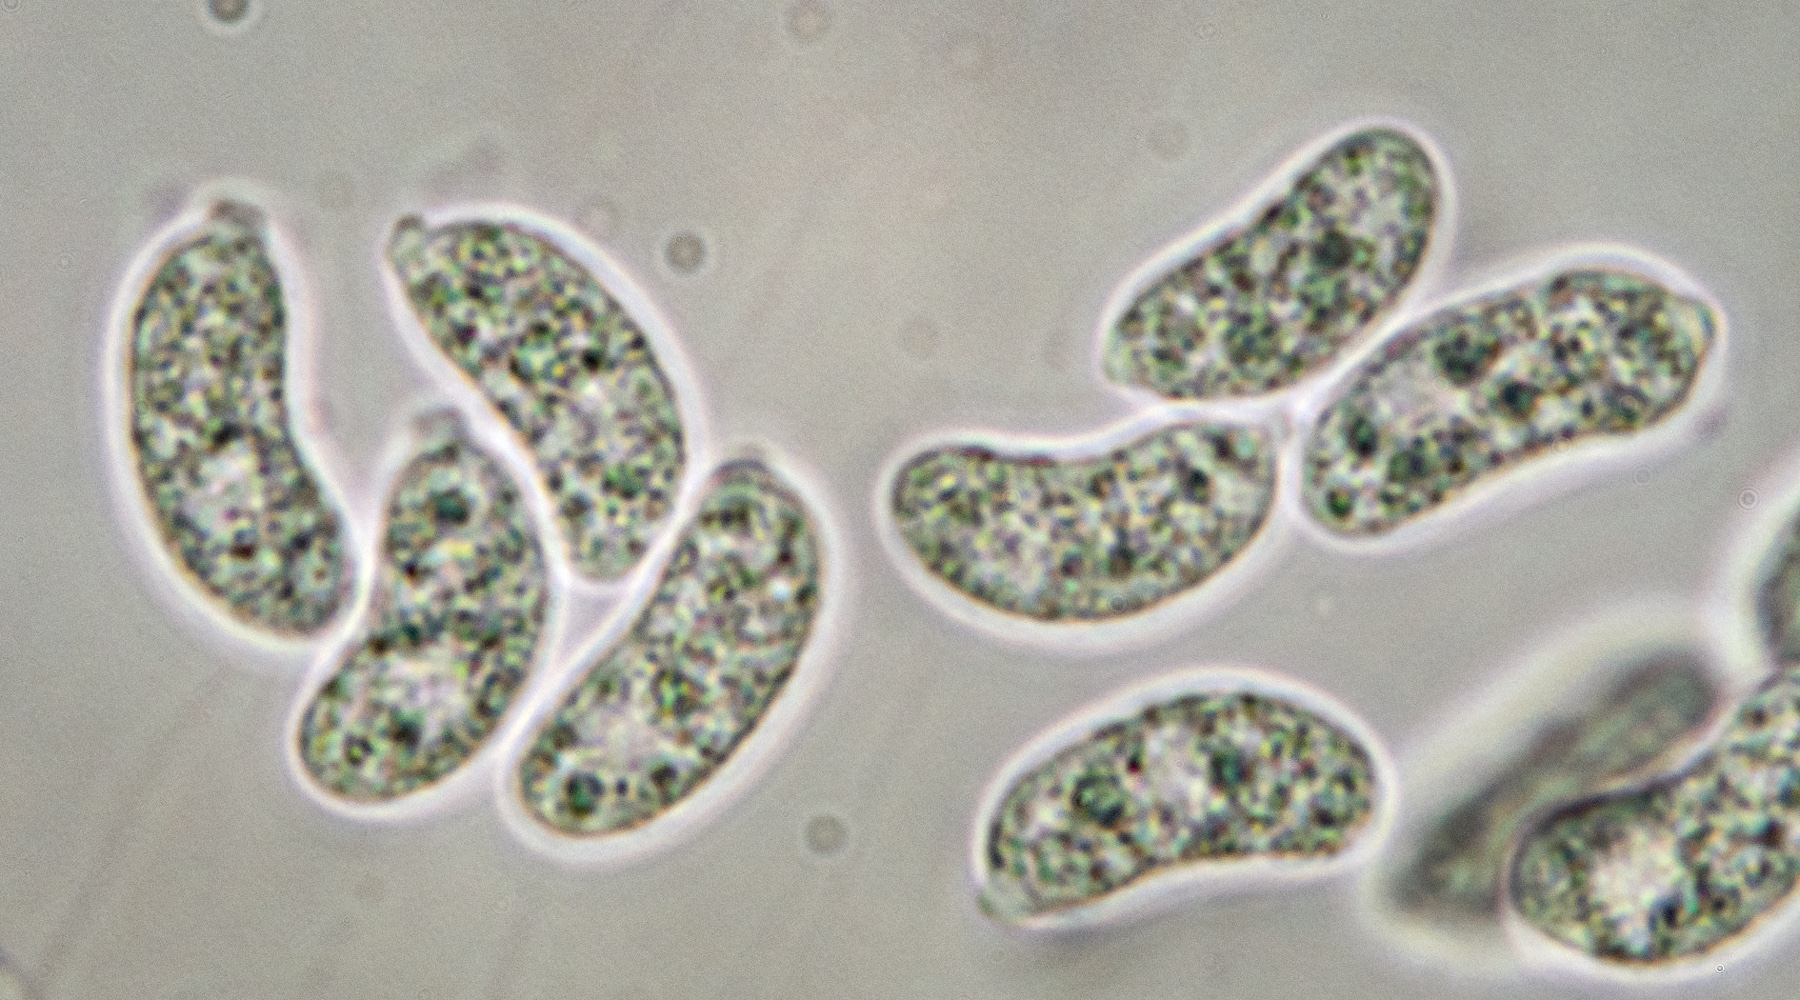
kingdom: Fungi
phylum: Basidiomycota
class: Agaricomycetes
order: Auriculariales
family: Hyaloriaceae
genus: Myxarium
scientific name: Myxarium hyalinum
